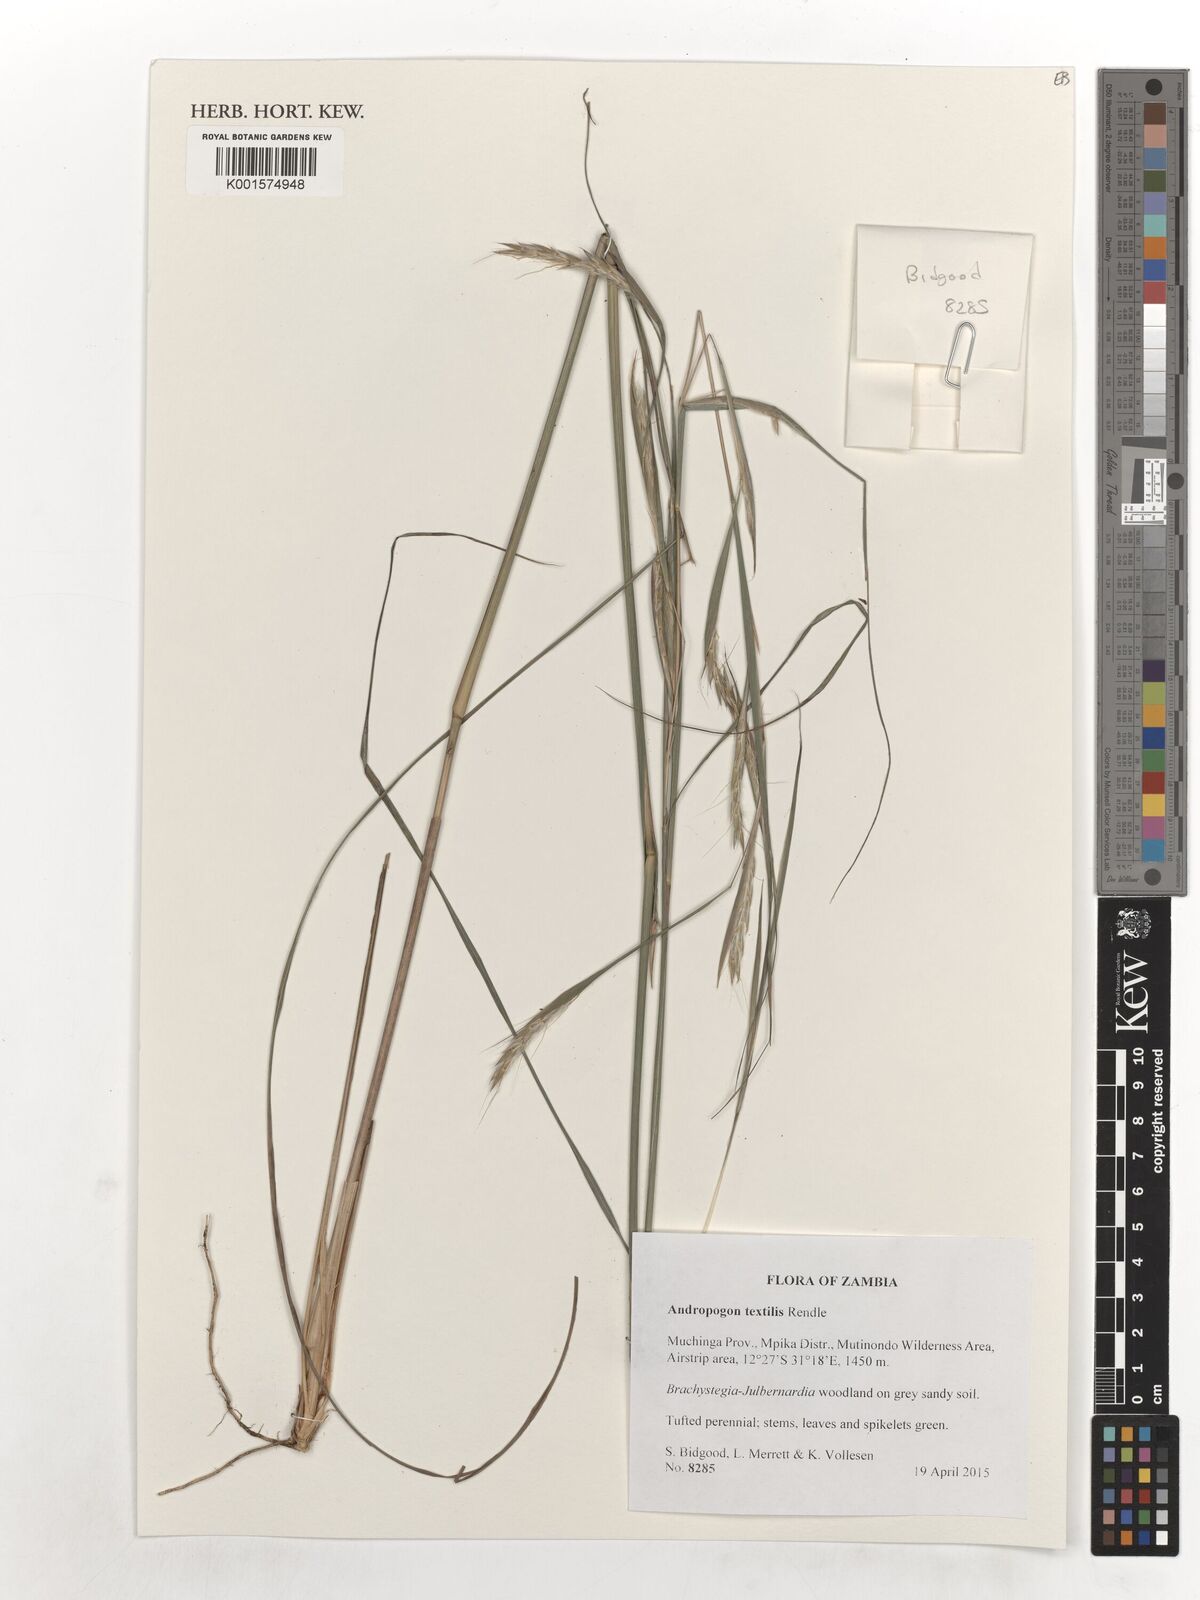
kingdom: Plantae
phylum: Tracheophyta
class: Liliopsida
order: Poales
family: Poaceae
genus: Andropogon
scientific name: Andropogon textilis
